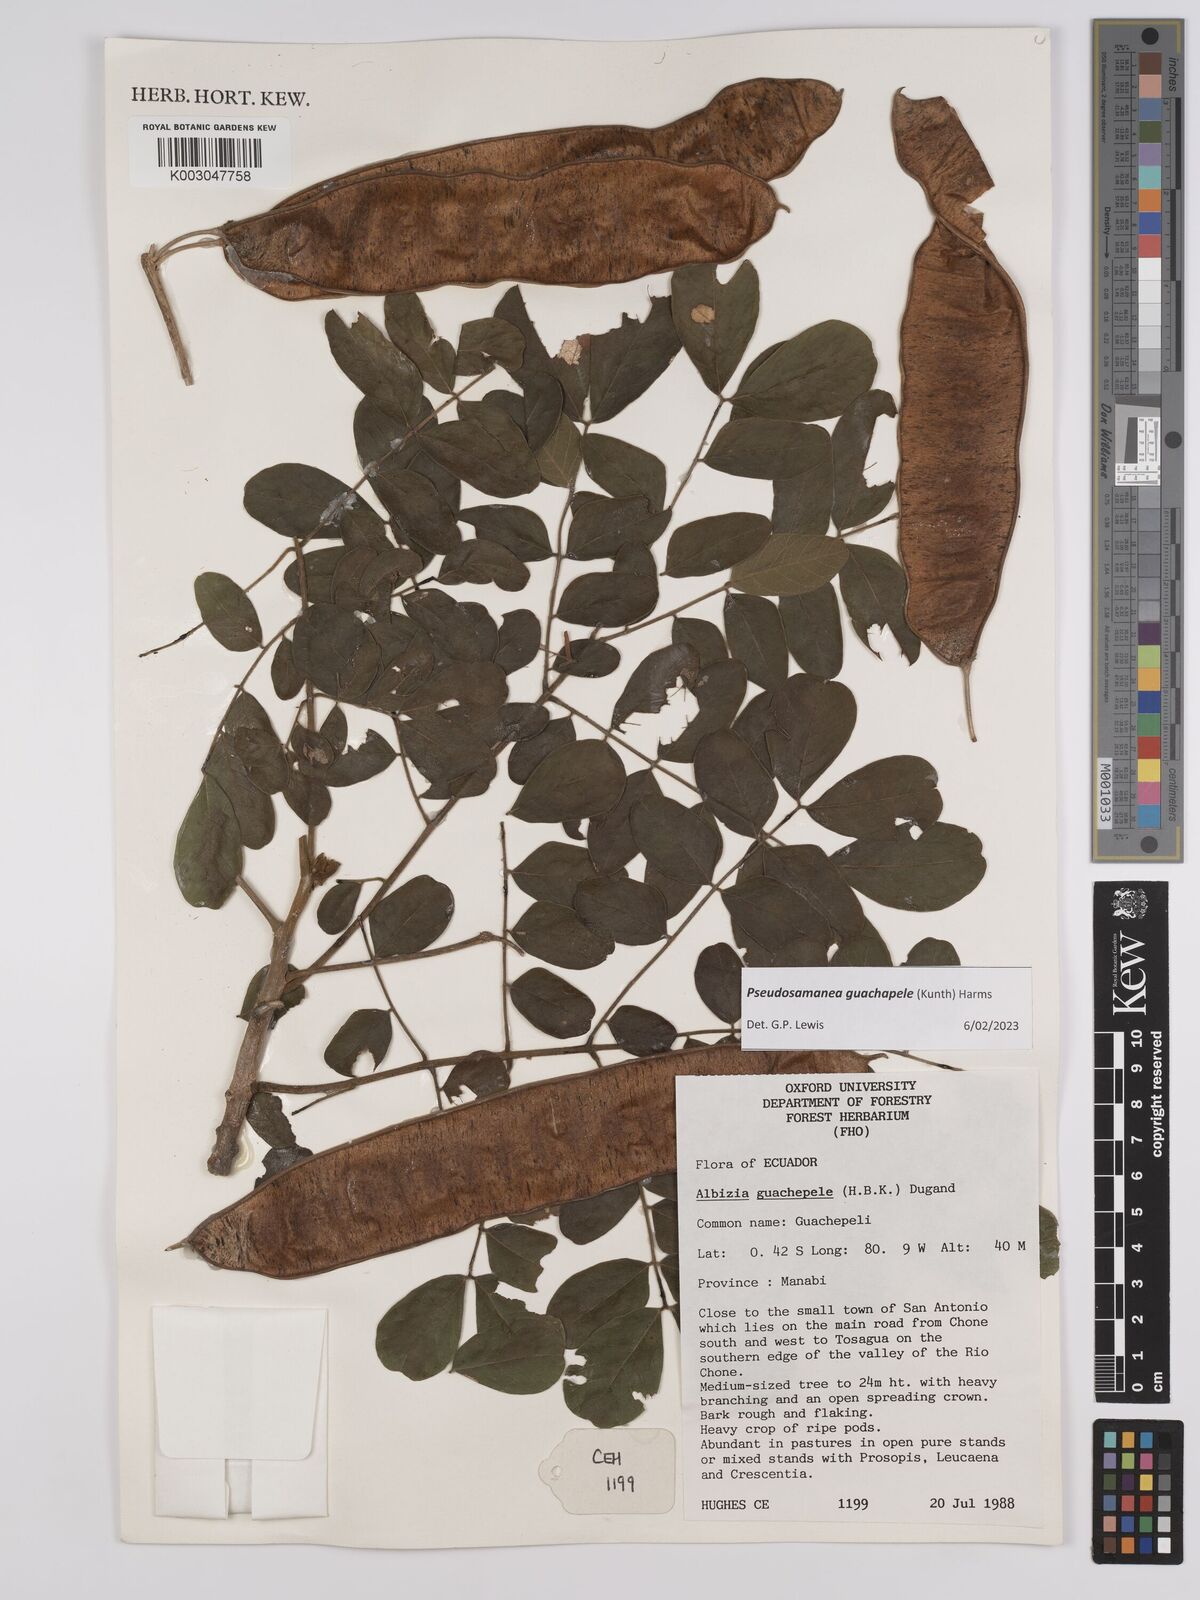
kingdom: Plantae
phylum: Tracheophyta
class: Magnoliopsida
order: Fabales
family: Fabaceae
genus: Pseudosamanea
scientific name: Pseudosamanea guachapele
